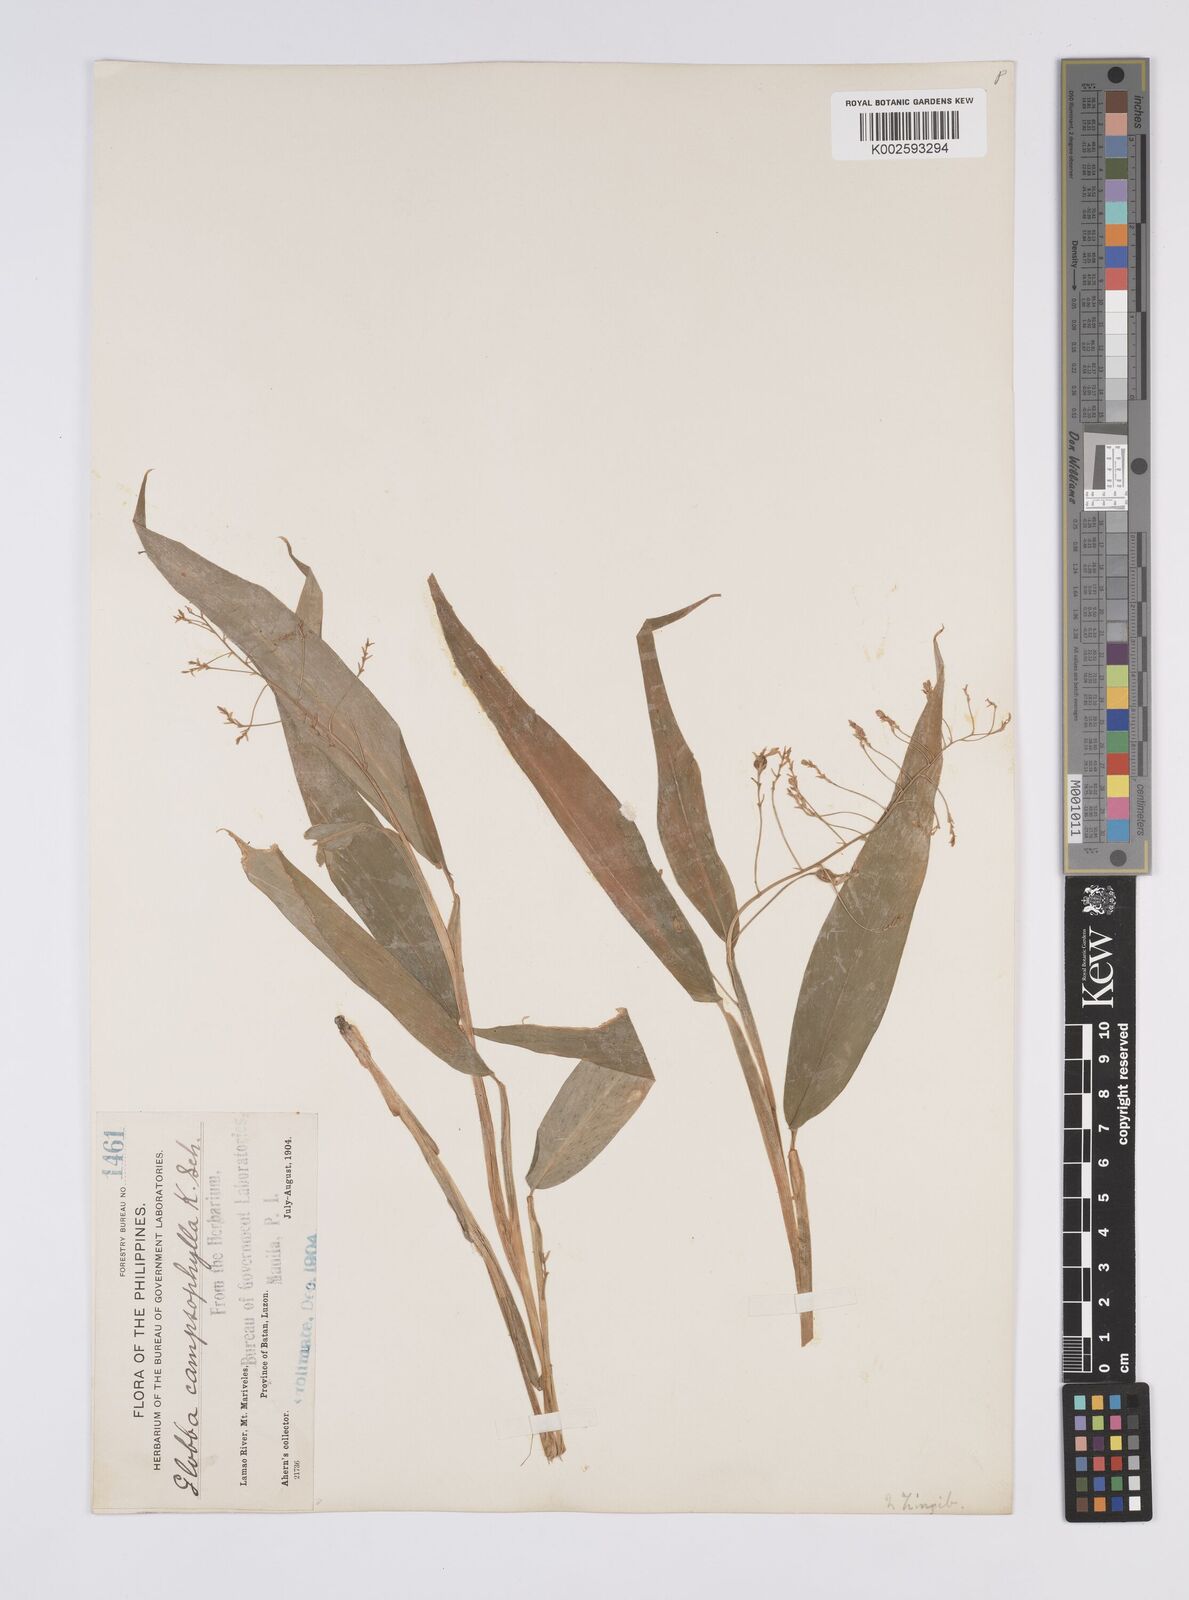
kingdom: Plantae
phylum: Tracheophyta
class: Liliopsida
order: Zingiberales
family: Zingiberaceae
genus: Globba
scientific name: Globba campsophylla
